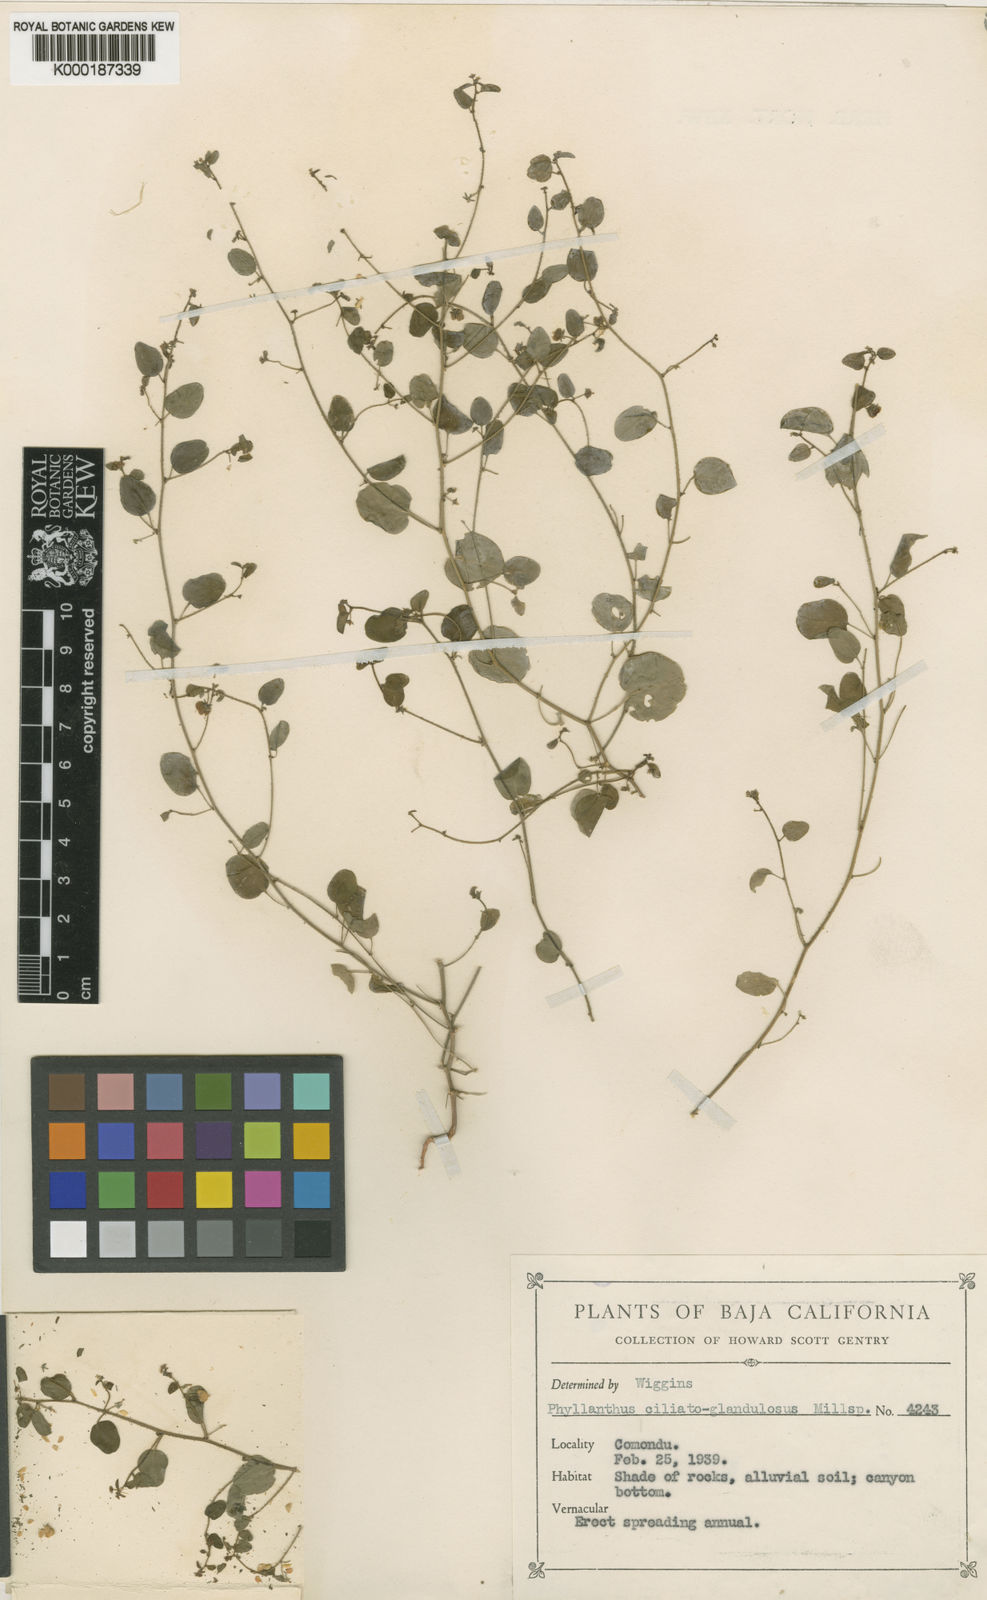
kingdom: Plantae
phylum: Tracheophyta
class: Magnoliopsida
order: Malpighiales
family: Phyllanthaceae
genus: Andrachne
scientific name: Andrachne microphylla
